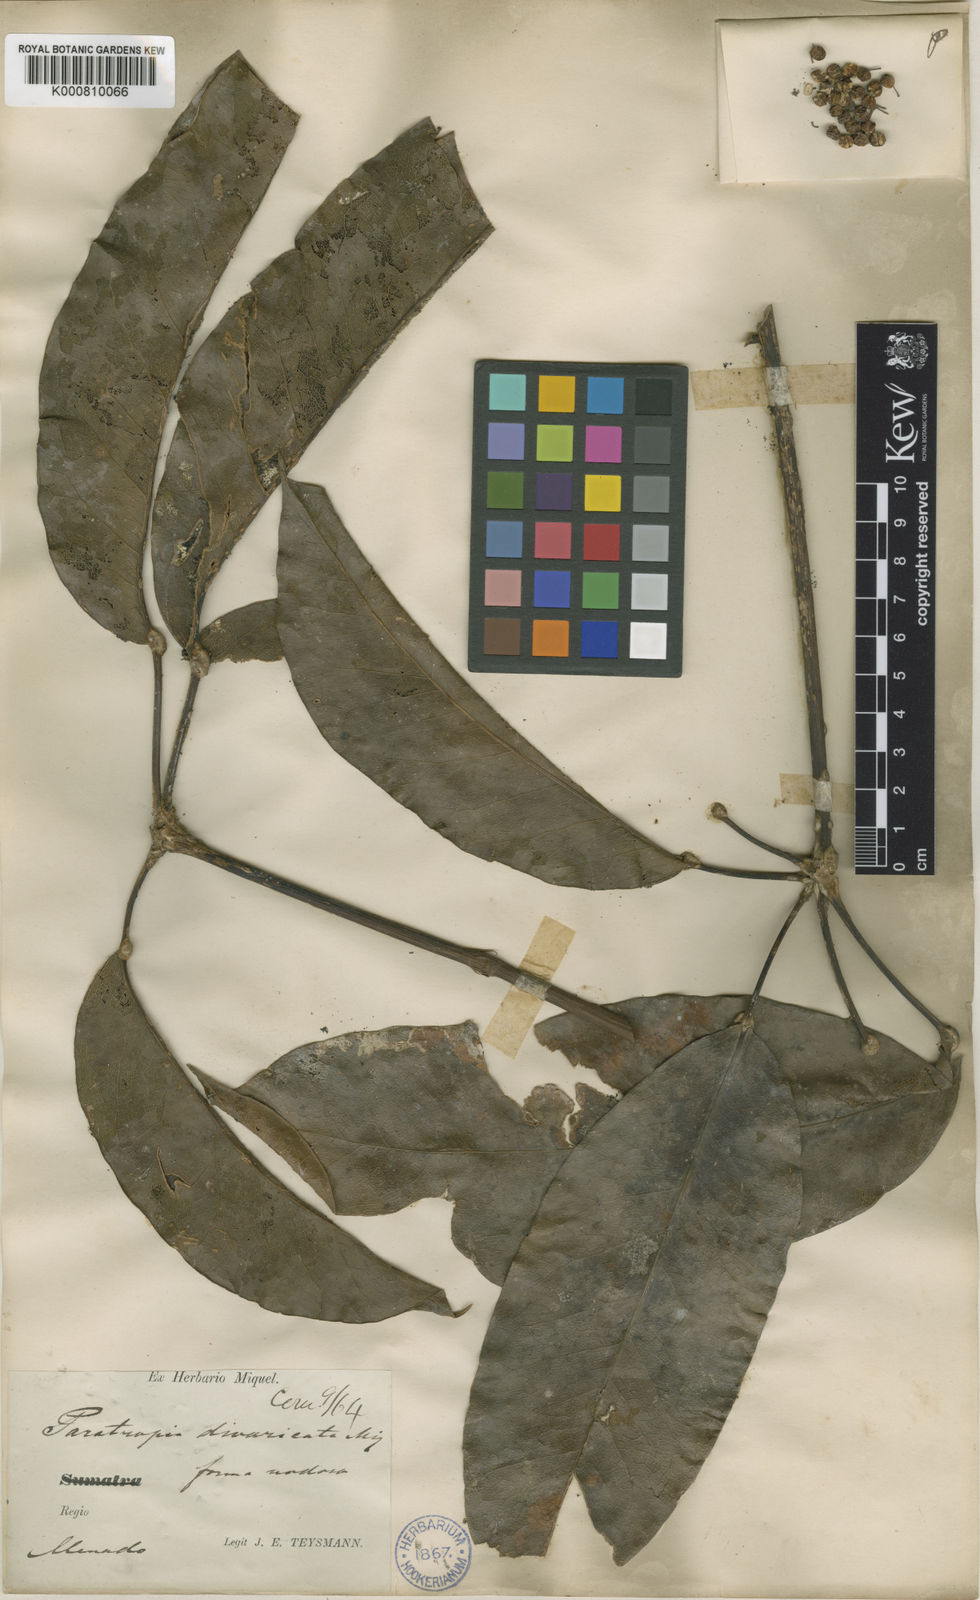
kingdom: Plantae
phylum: Tracheophyta
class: Magnoliopsida
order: Apiales
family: Araliaceae
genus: Heptapleurum
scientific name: Heptapleurum nodosum
